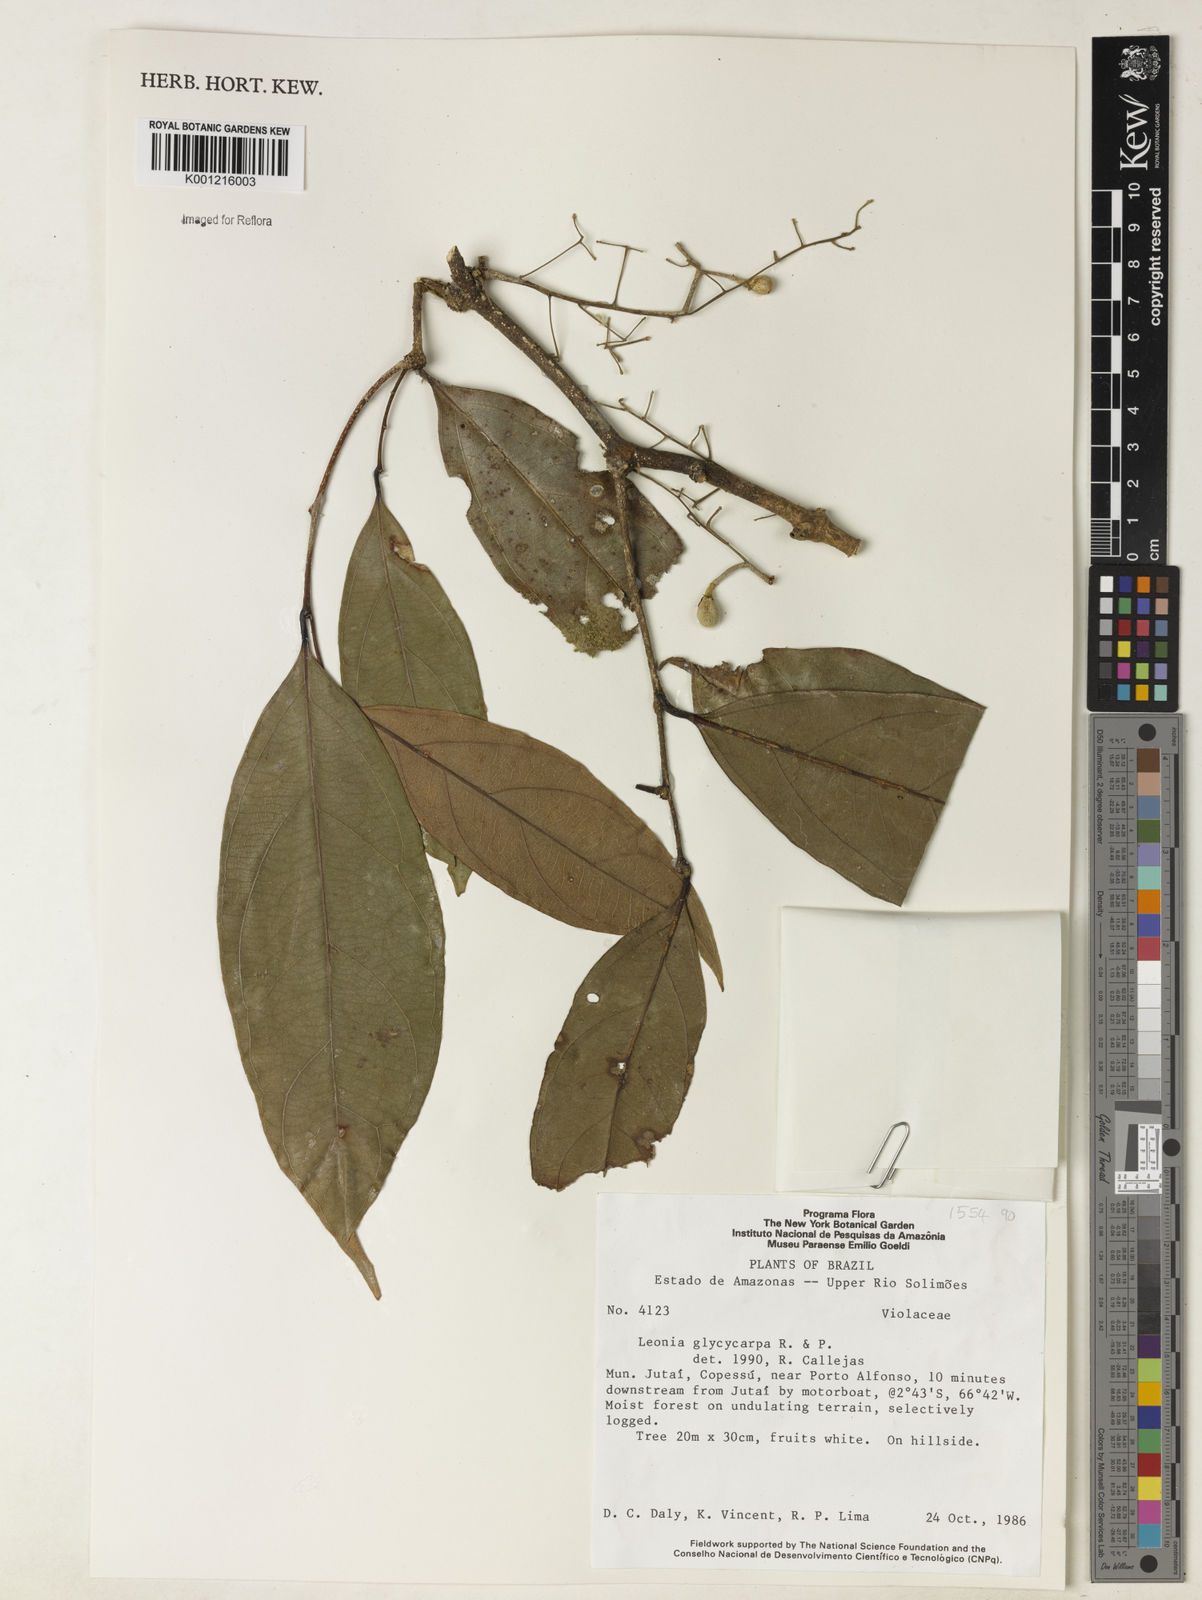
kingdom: Plantae
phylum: Tracheophyta
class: Magnoliopsida
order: Malpighiales
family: Violaceae
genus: Leonia
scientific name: Leonia glycycarpa
